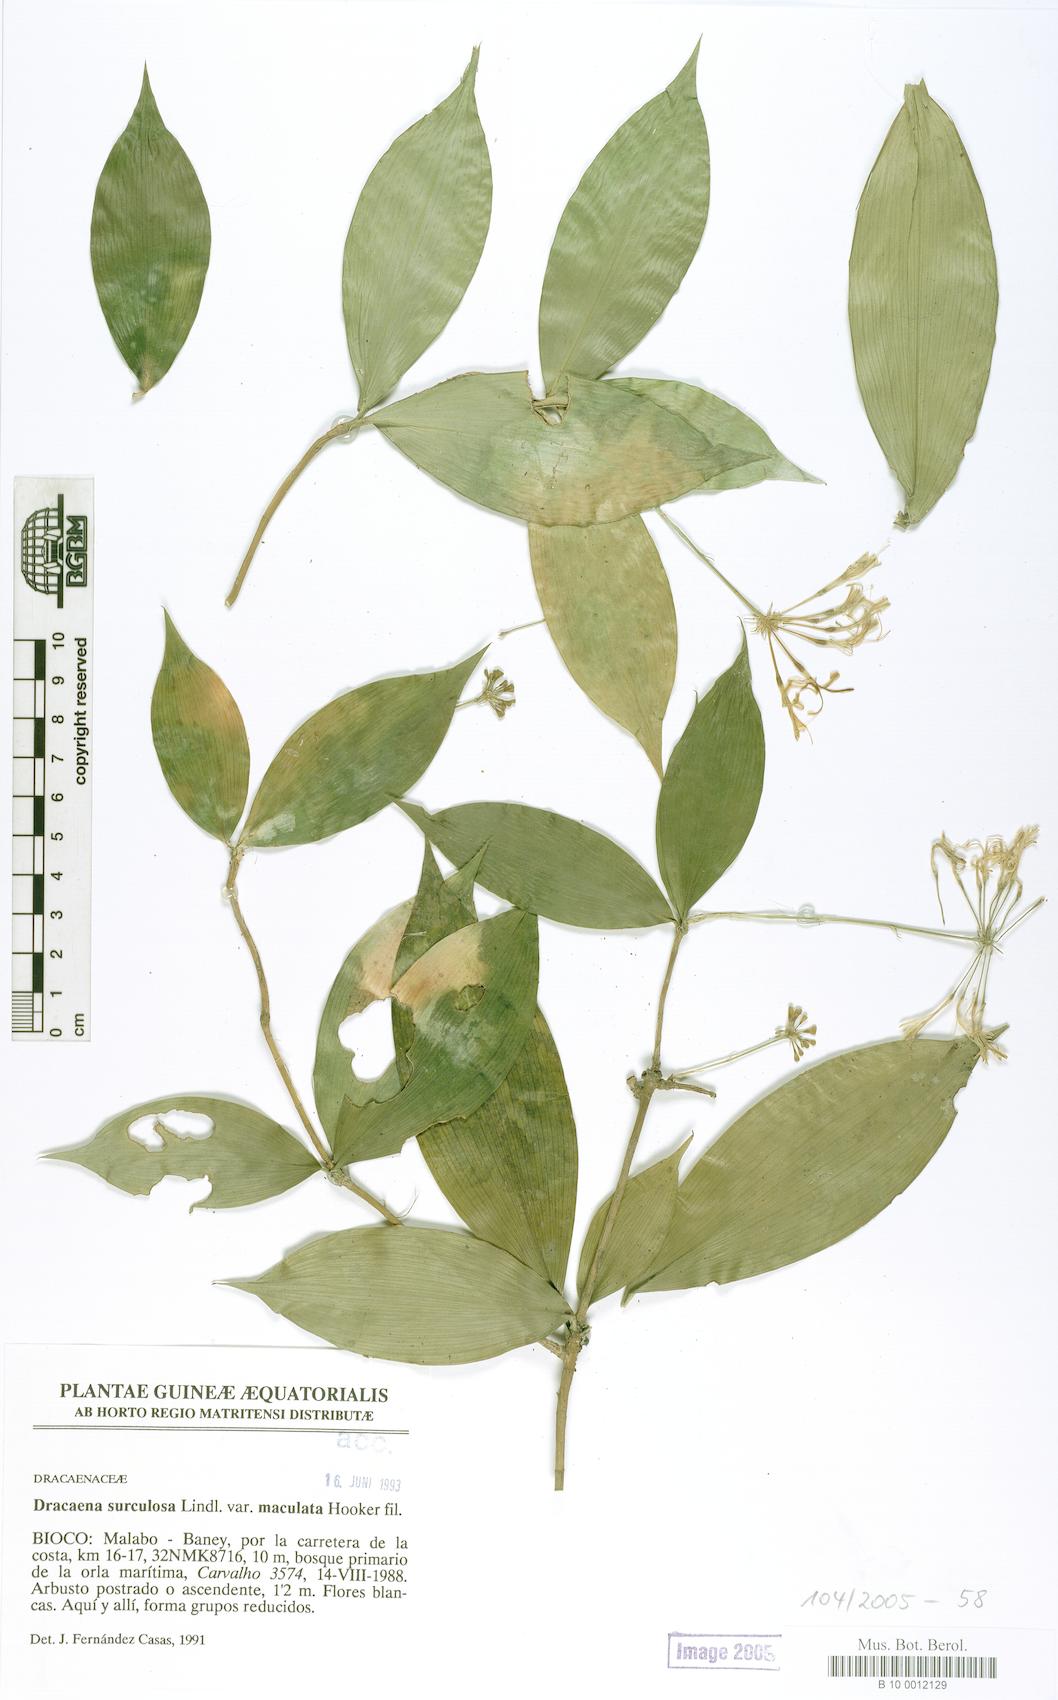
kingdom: Plantae
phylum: Tracheophyta
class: Liliopsida
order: Asparagales
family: Asparagaceae
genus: Dracaena
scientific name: Dracaena surculosa
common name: Spotted dracaena
